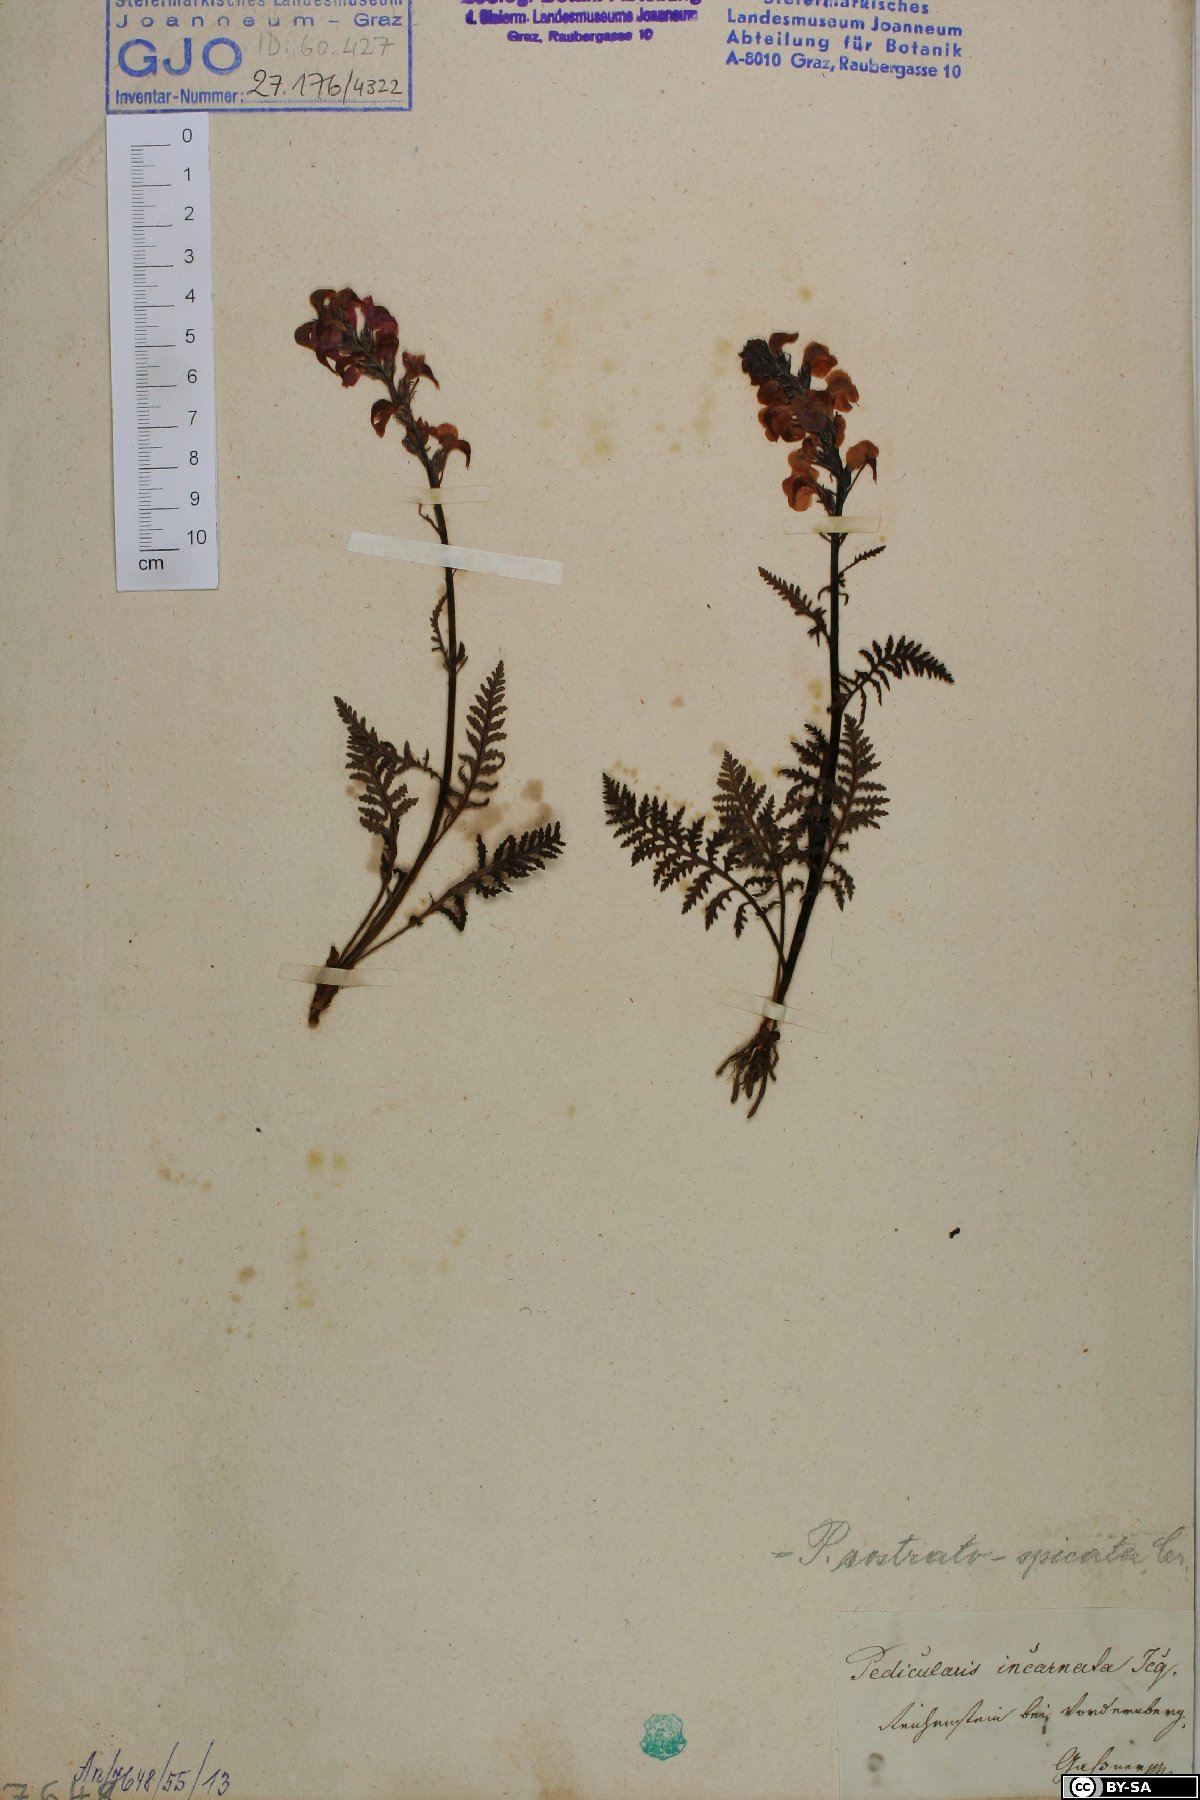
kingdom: Plantae
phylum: Tracheophyta
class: Magnoliopsida
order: Lamiales
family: Orobanchaceae
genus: Pedicularis
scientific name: Pedicularis rostratospicata
